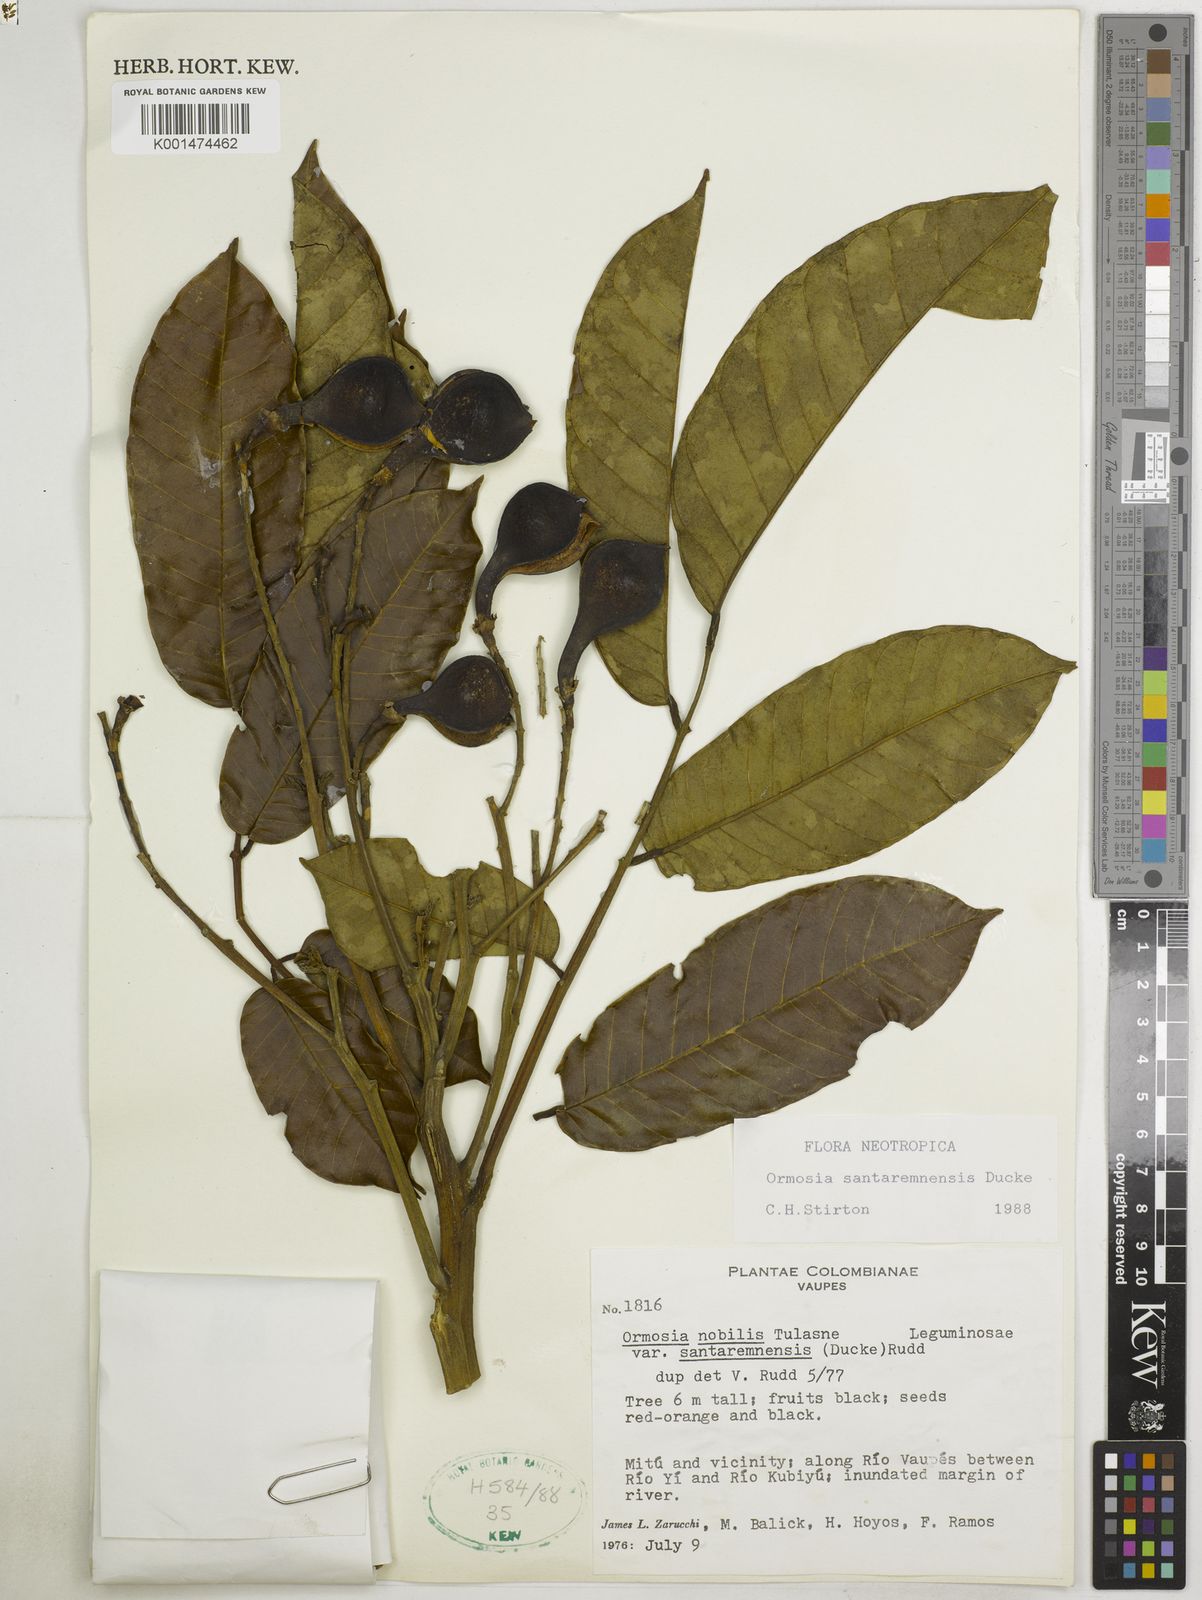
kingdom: Plantae
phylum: Tracheophyta
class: Magnoliopsida
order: Fabales
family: Fabaceae
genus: Ormosia
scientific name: Ormosia santaremnensis
